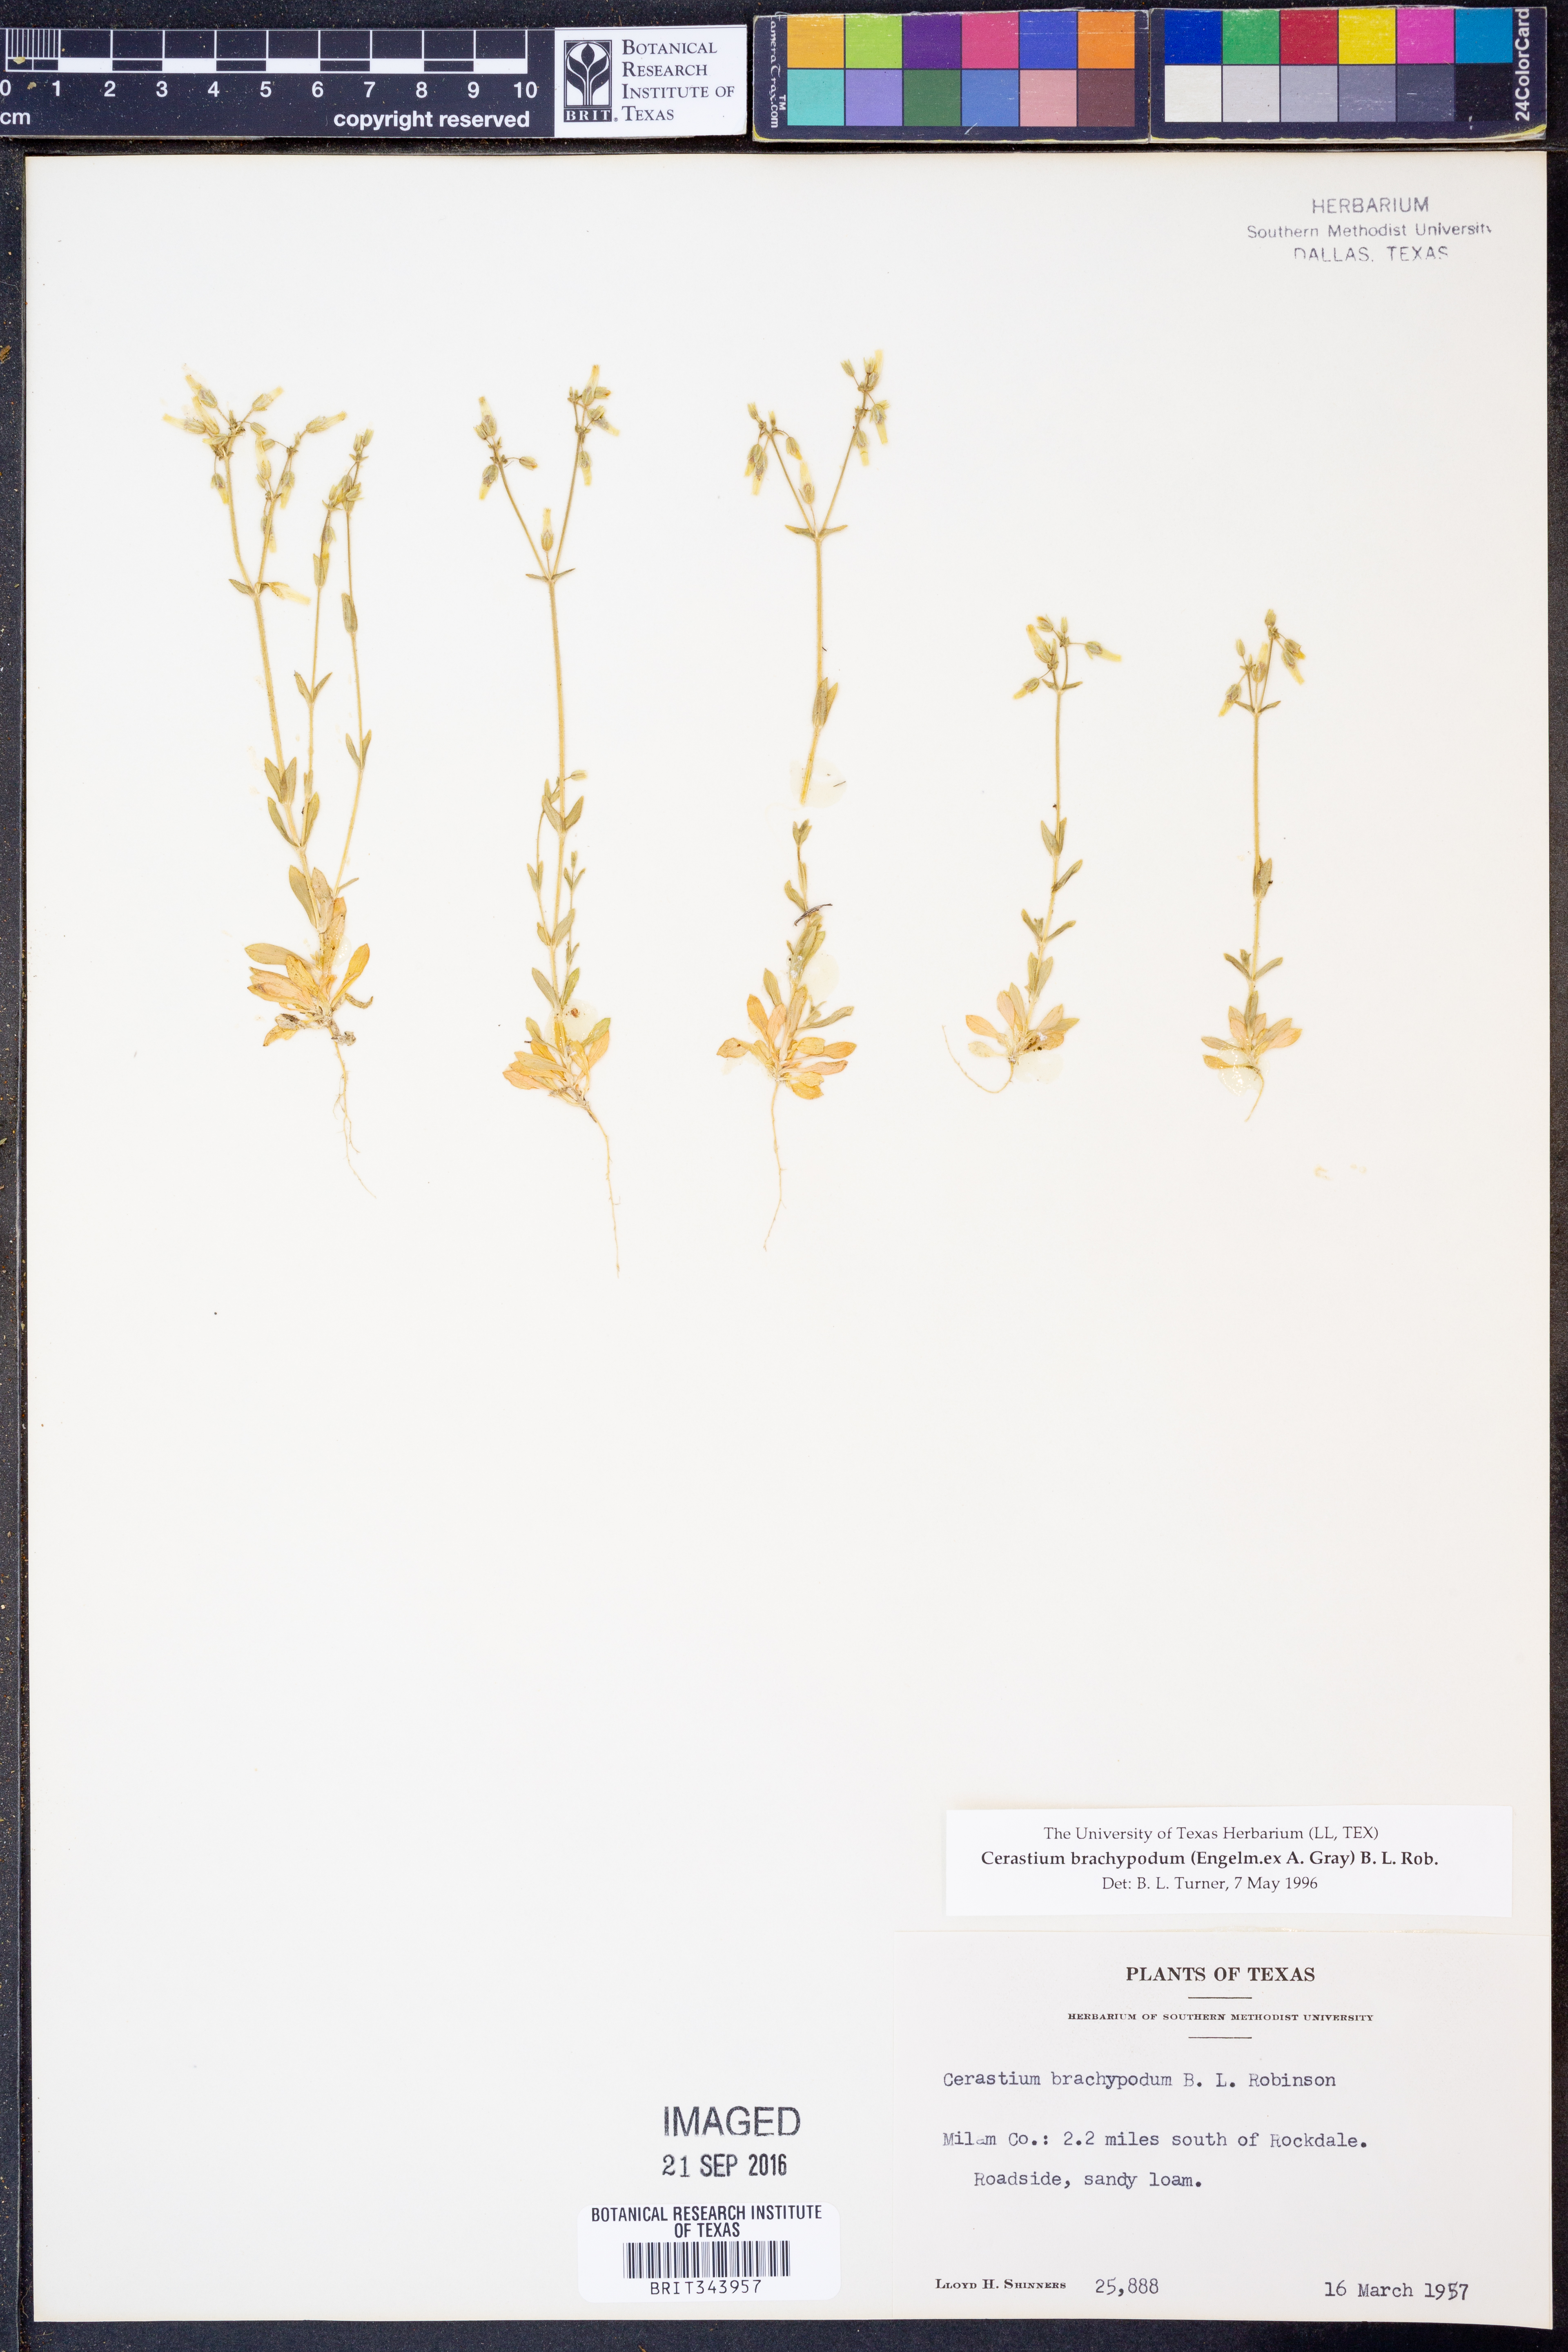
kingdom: Plantae
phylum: Tracheophyta
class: Magnoliopsida
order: Caryophyllales
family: Caryophyllaceae
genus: Cerastium
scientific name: Cerastium brachypodum
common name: Short-pedicelled nodding chickweed
